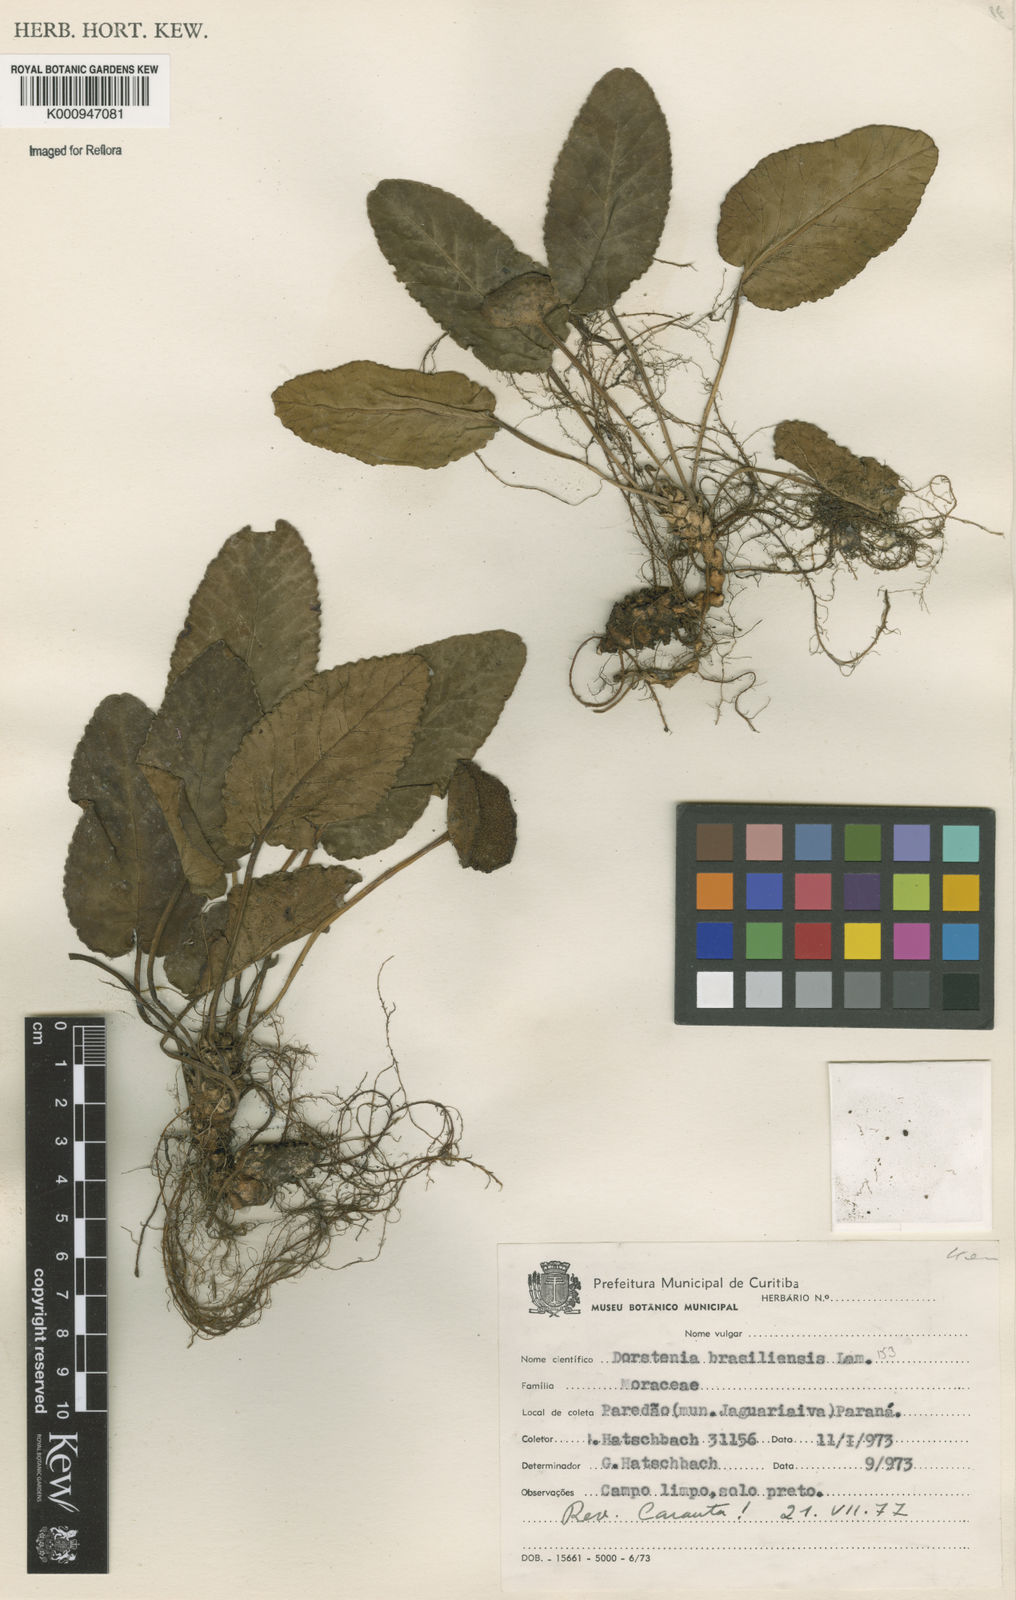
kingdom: Plantae
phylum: Tracheophyta
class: Magnoliopsida
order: Rosales
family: Moraceae
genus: Dorstenia
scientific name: Dorstenia brasiliensis
